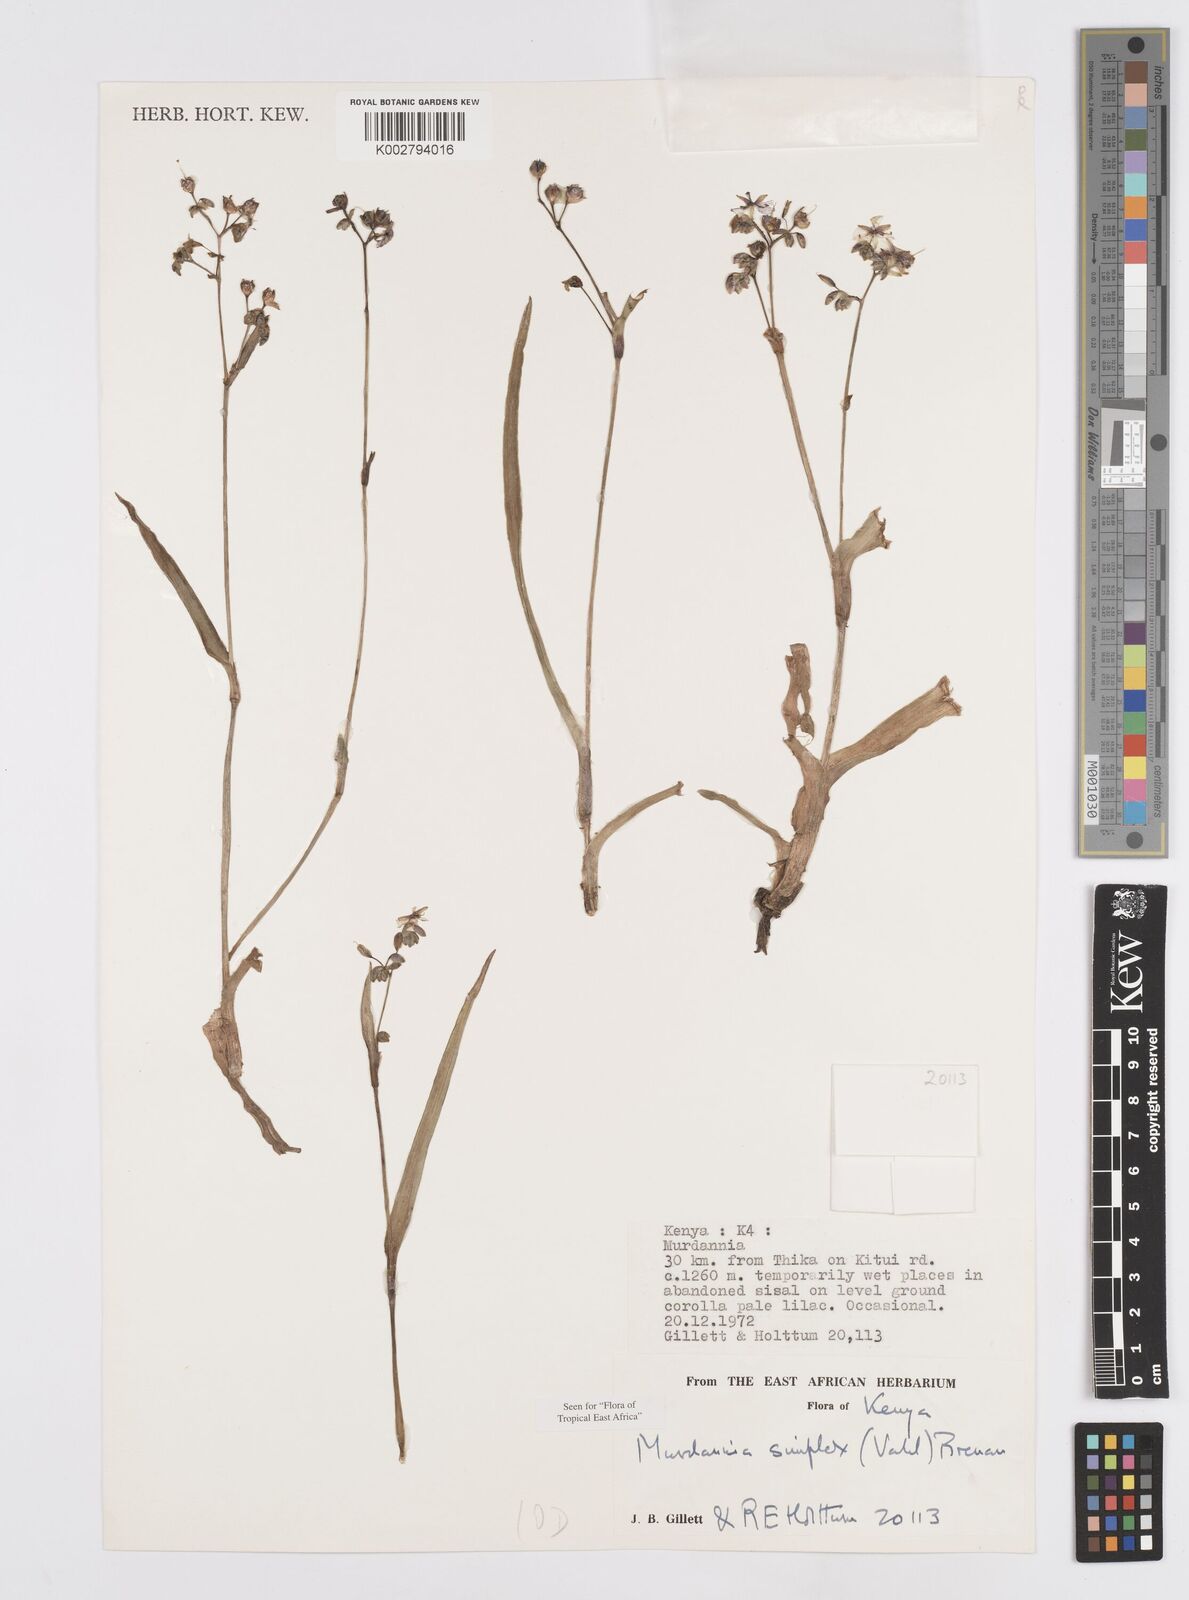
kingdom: Plantae
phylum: Tracheophyta
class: Liliopsida
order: Commelinales
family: Commelinaceae
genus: Murdannia
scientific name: Murdannia simplex
